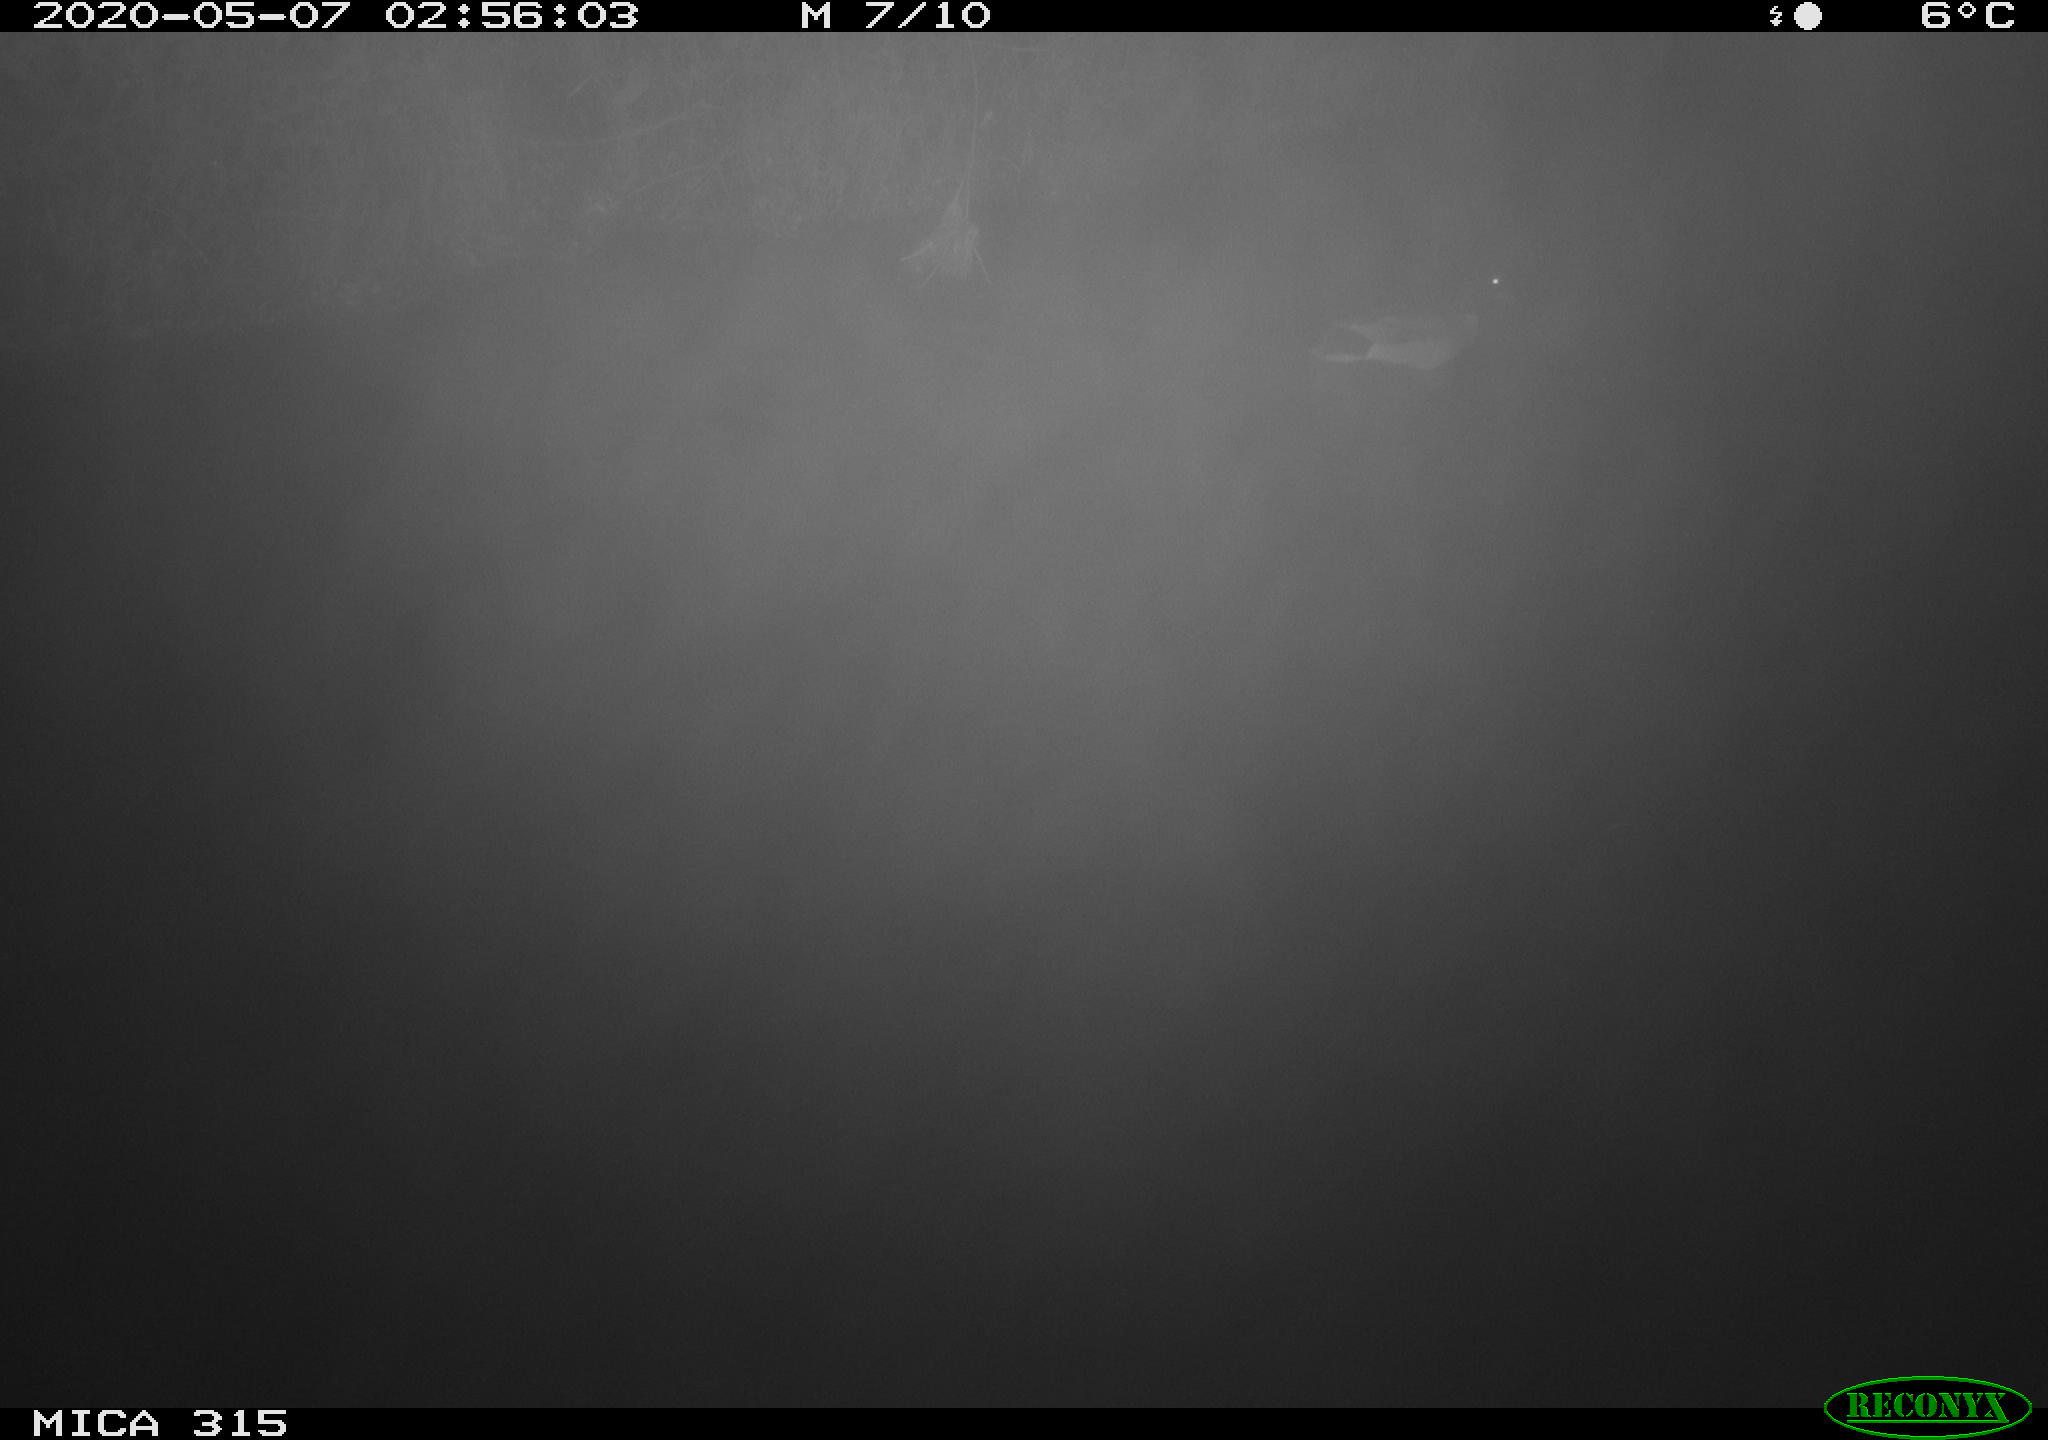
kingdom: Animalia
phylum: Chordata
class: Aves
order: Anseriformes
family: Anatidae
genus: Anas
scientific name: Anas platyrhynchos
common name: Mallard
